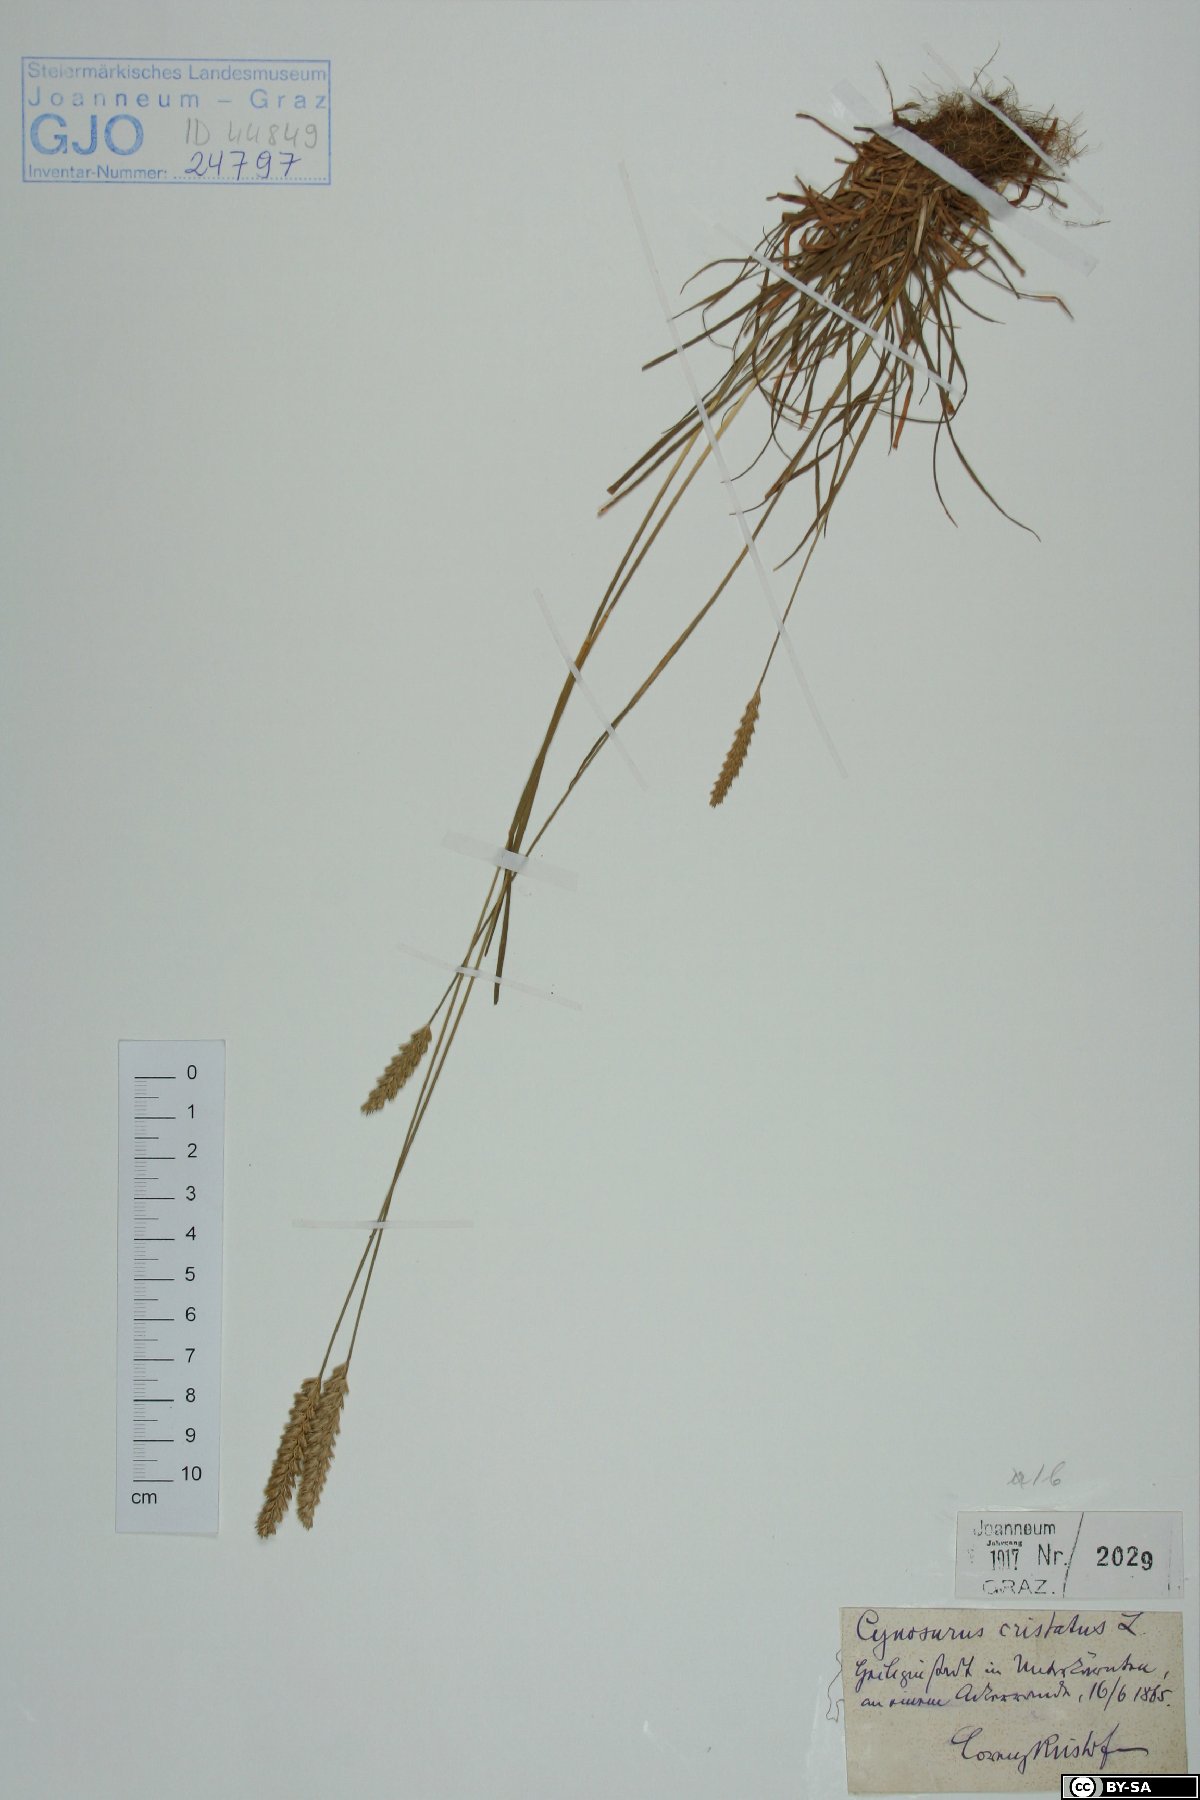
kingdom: Plantae
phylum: Tracheophyta
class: Liliopsida
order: Poales
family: Poaceae
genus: Cynosurus
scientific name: Cynosurus cristatus
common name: Crested dog's-tail
